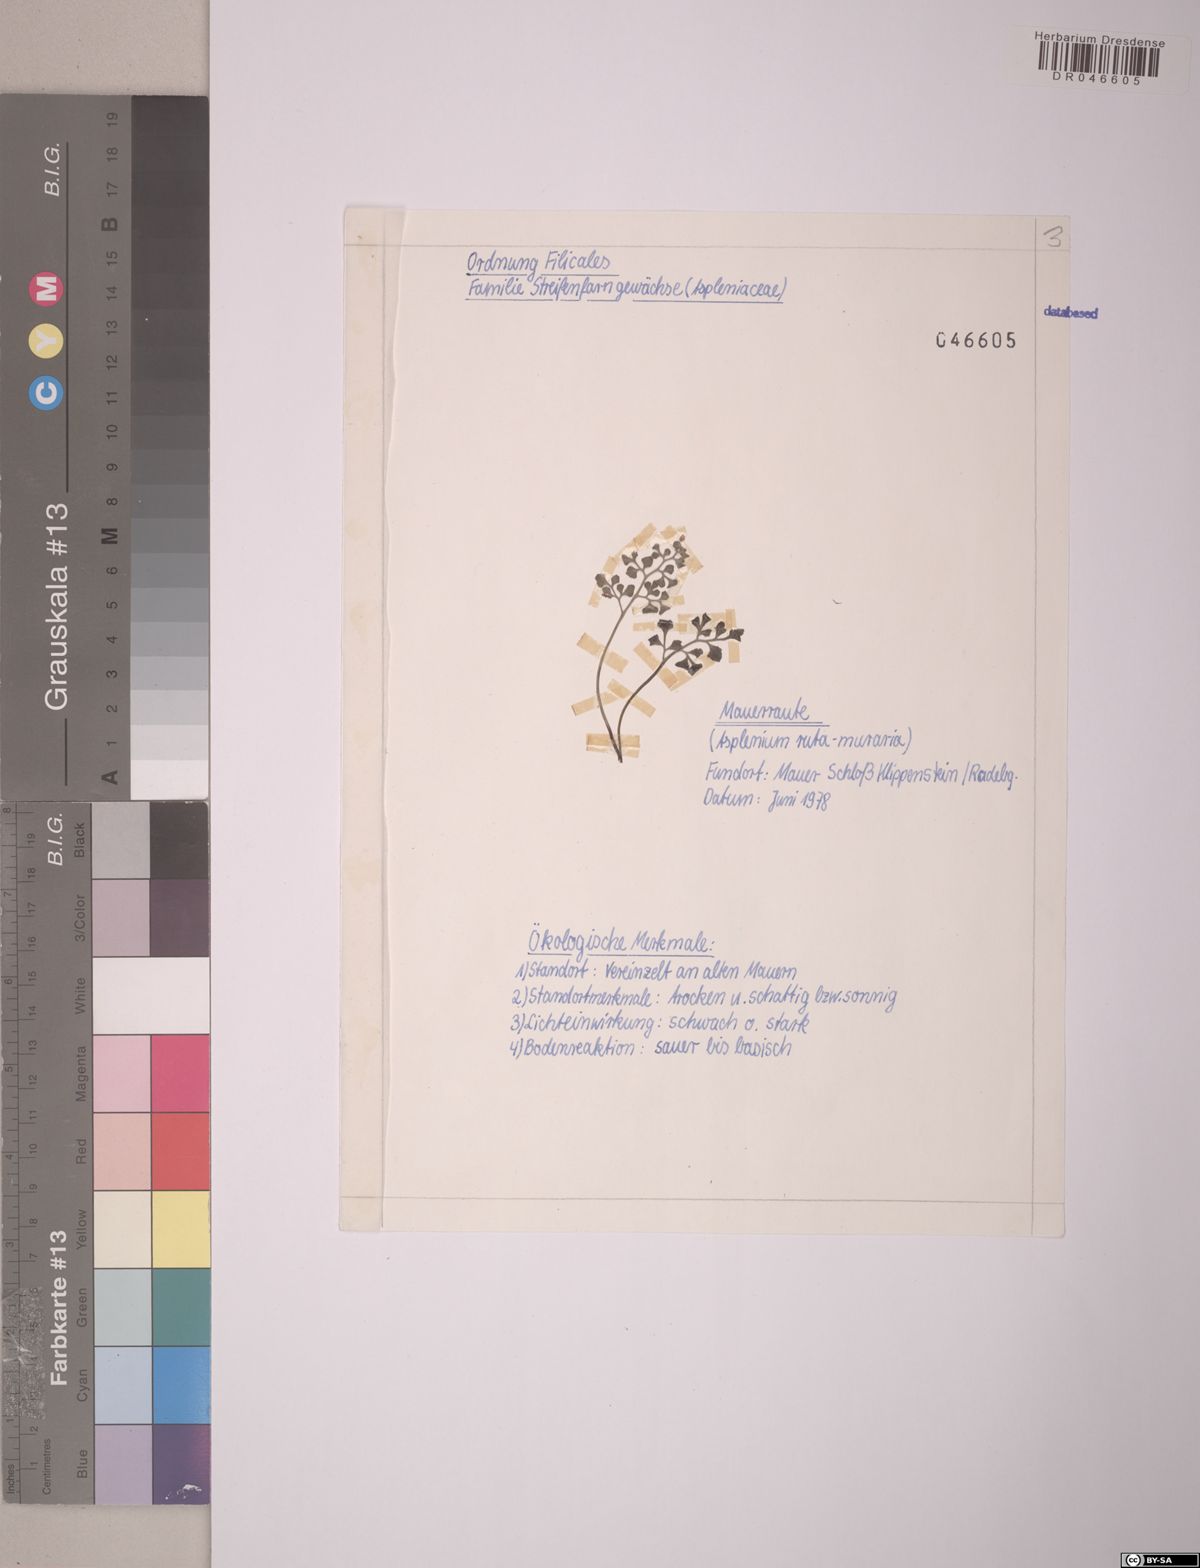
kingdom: Plantae
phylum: Tracheophyta
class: Polypodiopsida
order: Polypodiales
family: Aspleniaceae
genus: Asplenium
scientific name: Asplenium ruta-muraria
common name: Wall-rue
